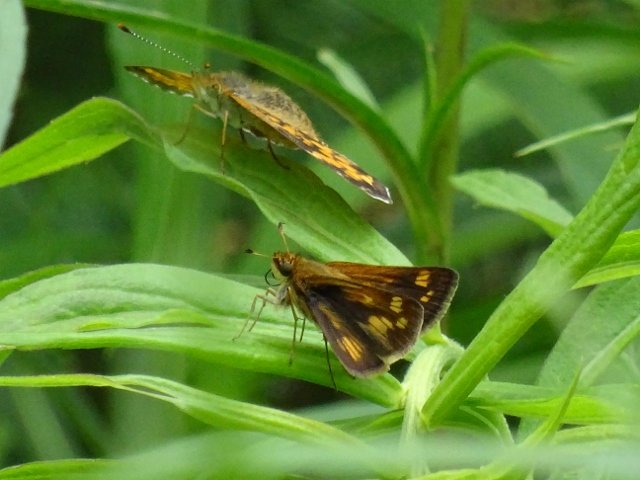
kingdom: Animalia
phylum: Arthropoda
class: Insecta
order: Lepidoptera
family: Hesperiidae
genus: Polites
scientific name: Polites coras
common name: Peck's Skipper
